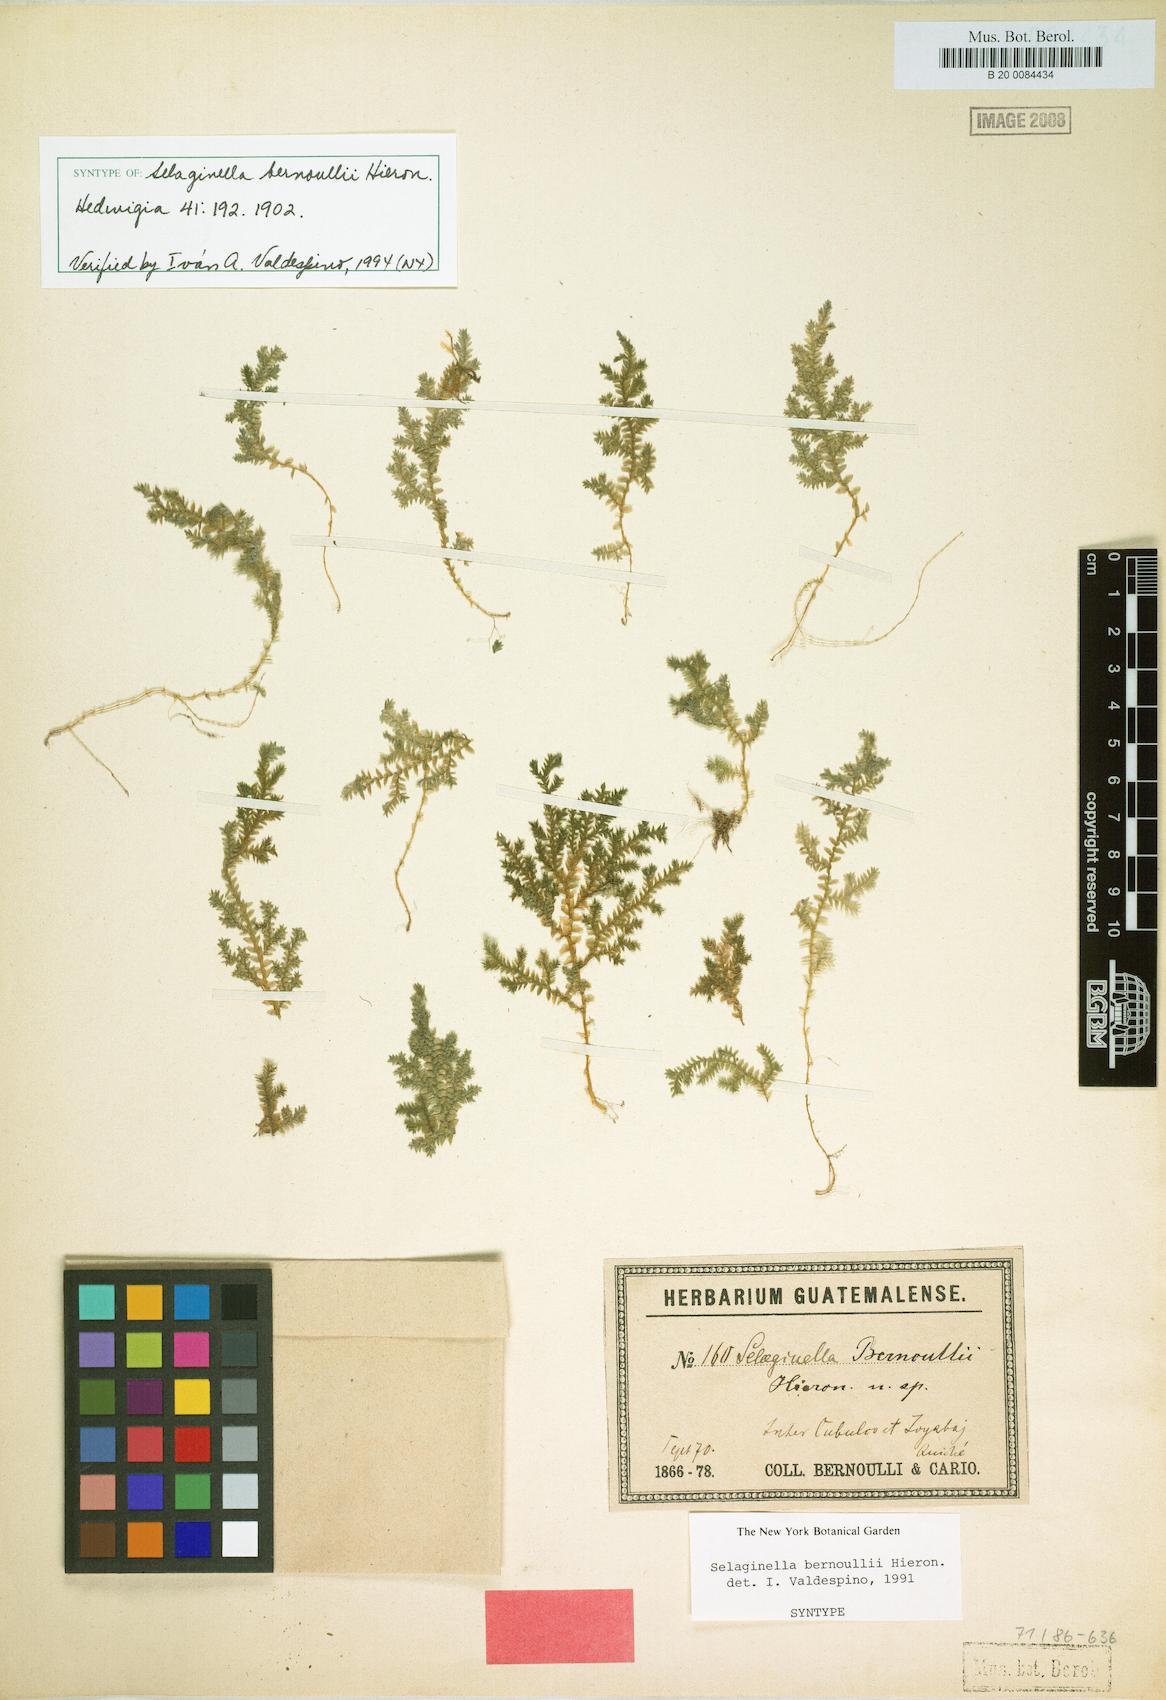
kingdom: Plantae
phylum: Tracheophyta
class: Lycopodiopsida
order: Selaginellales
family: Selaginellaceae
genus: Selaginella
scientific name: Selaginella bernoullii
